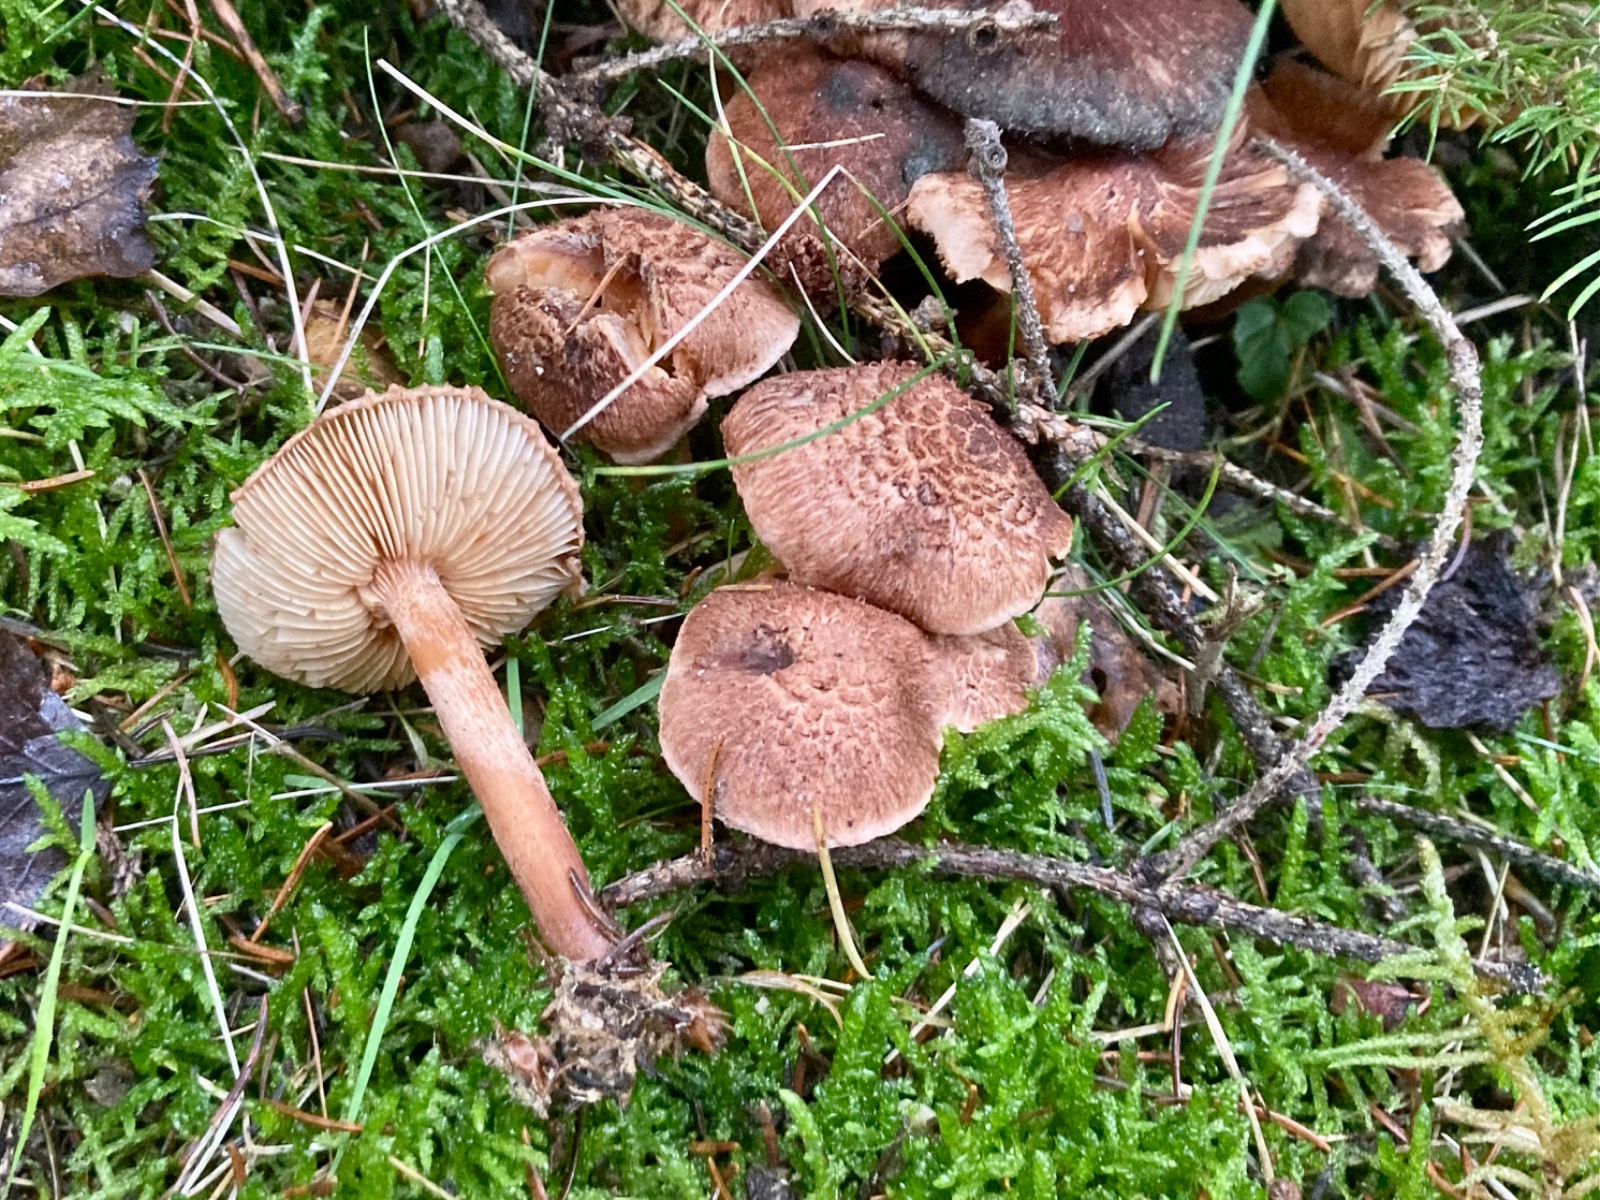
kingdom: Fungi
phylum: Basidiomycota
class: Agaricomycetes
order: Agaricales
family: Tricholomataceae
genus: Tricholoma
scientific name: Tricholoma vaccinum
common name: ko-ridderhat
